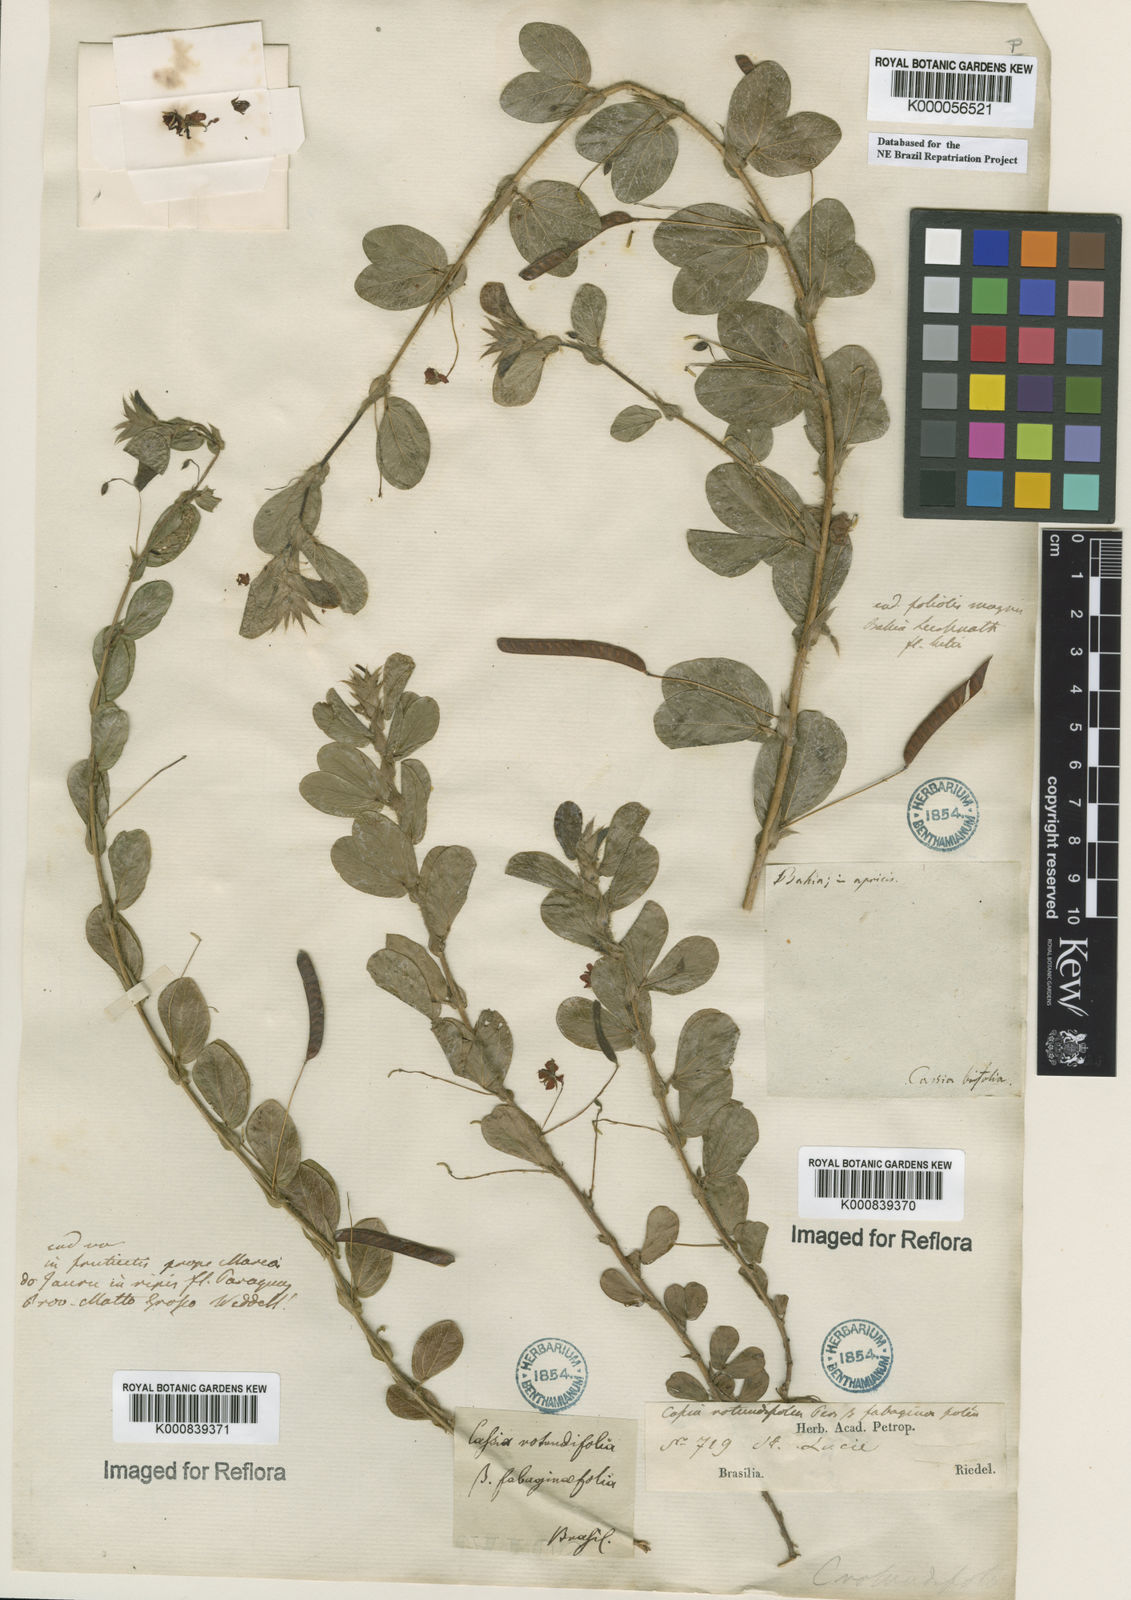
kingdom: Plantae
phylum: Tracheophyta
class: Magnoliopsida
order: Fabales
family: Fabaceae
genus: Chamaecrista
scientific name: Chamaecrista rotundifolia
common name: Round-leaf cassia
